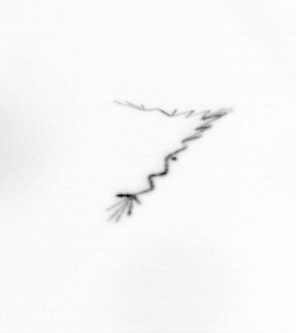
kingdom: Chromista
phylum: Ochrophyta
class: Bacillariophyceae
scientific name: Bacillariophyceae
